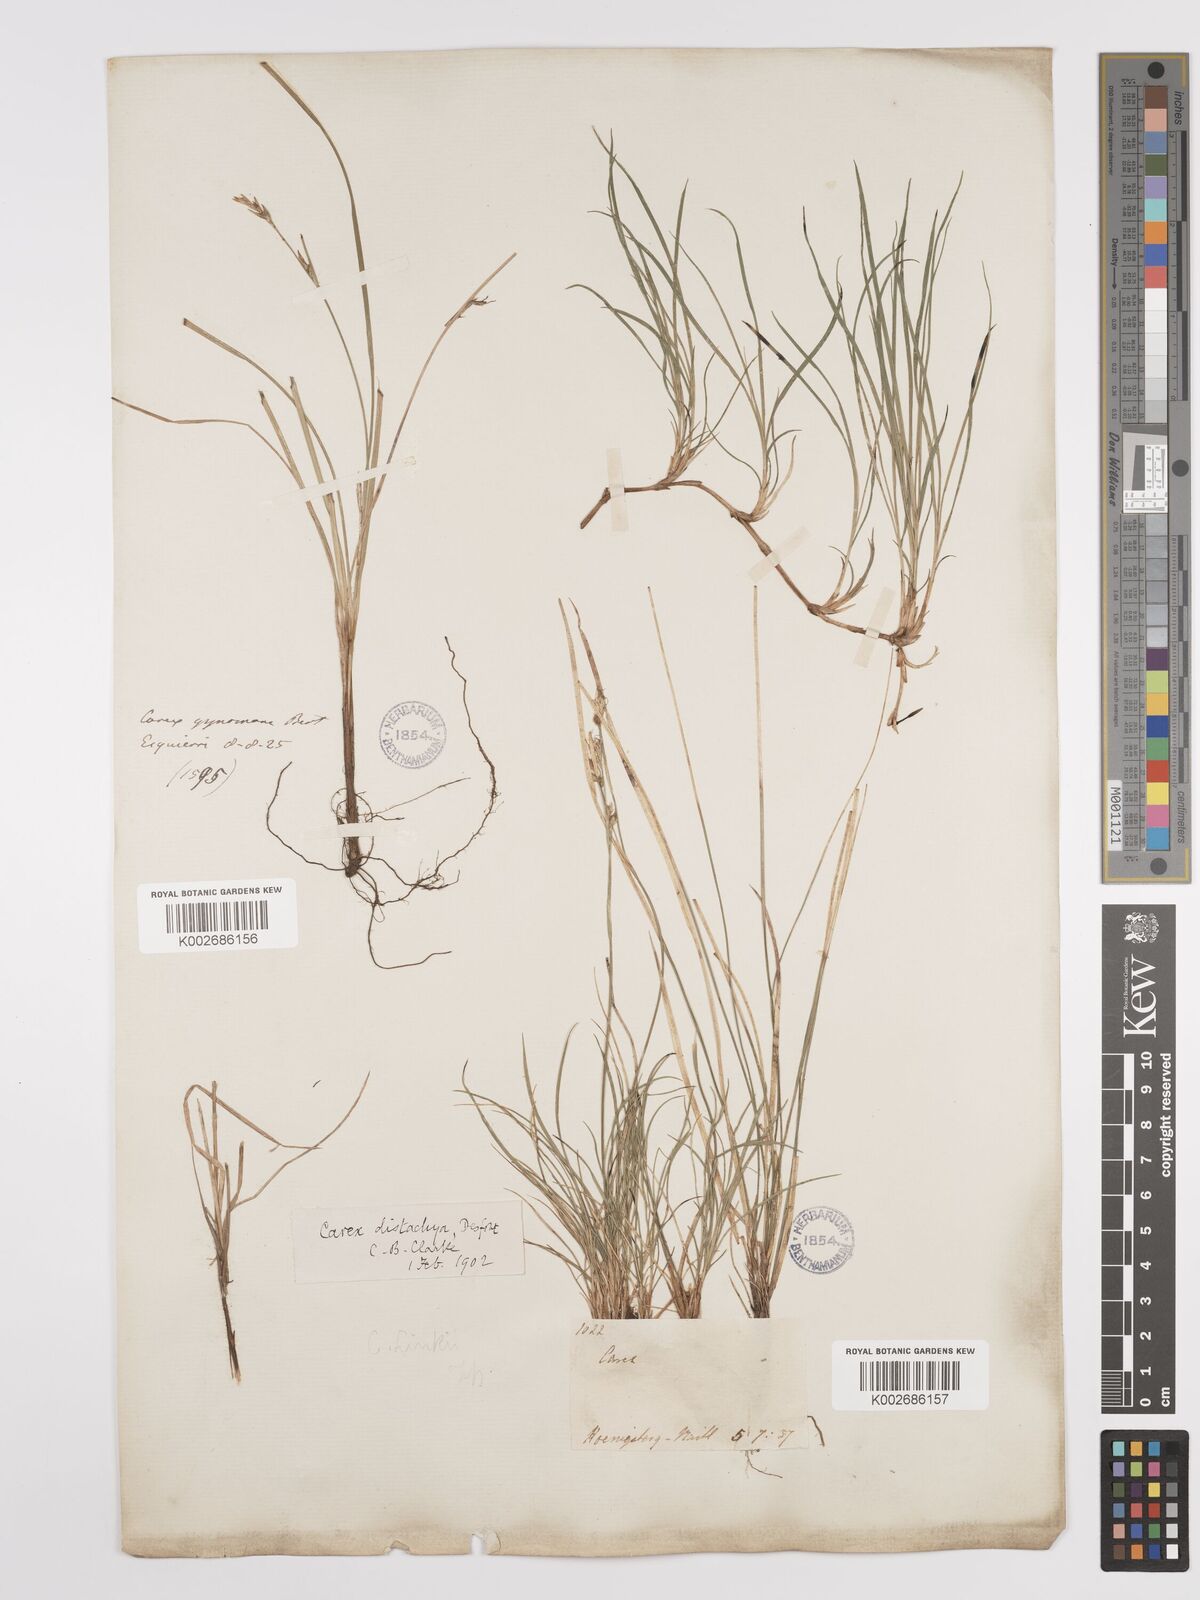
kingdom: Plantae
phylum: Tracheophyta
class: Liliopsida
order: Poales
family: Cyperaceae
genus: Carex
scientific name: Carex distachya
